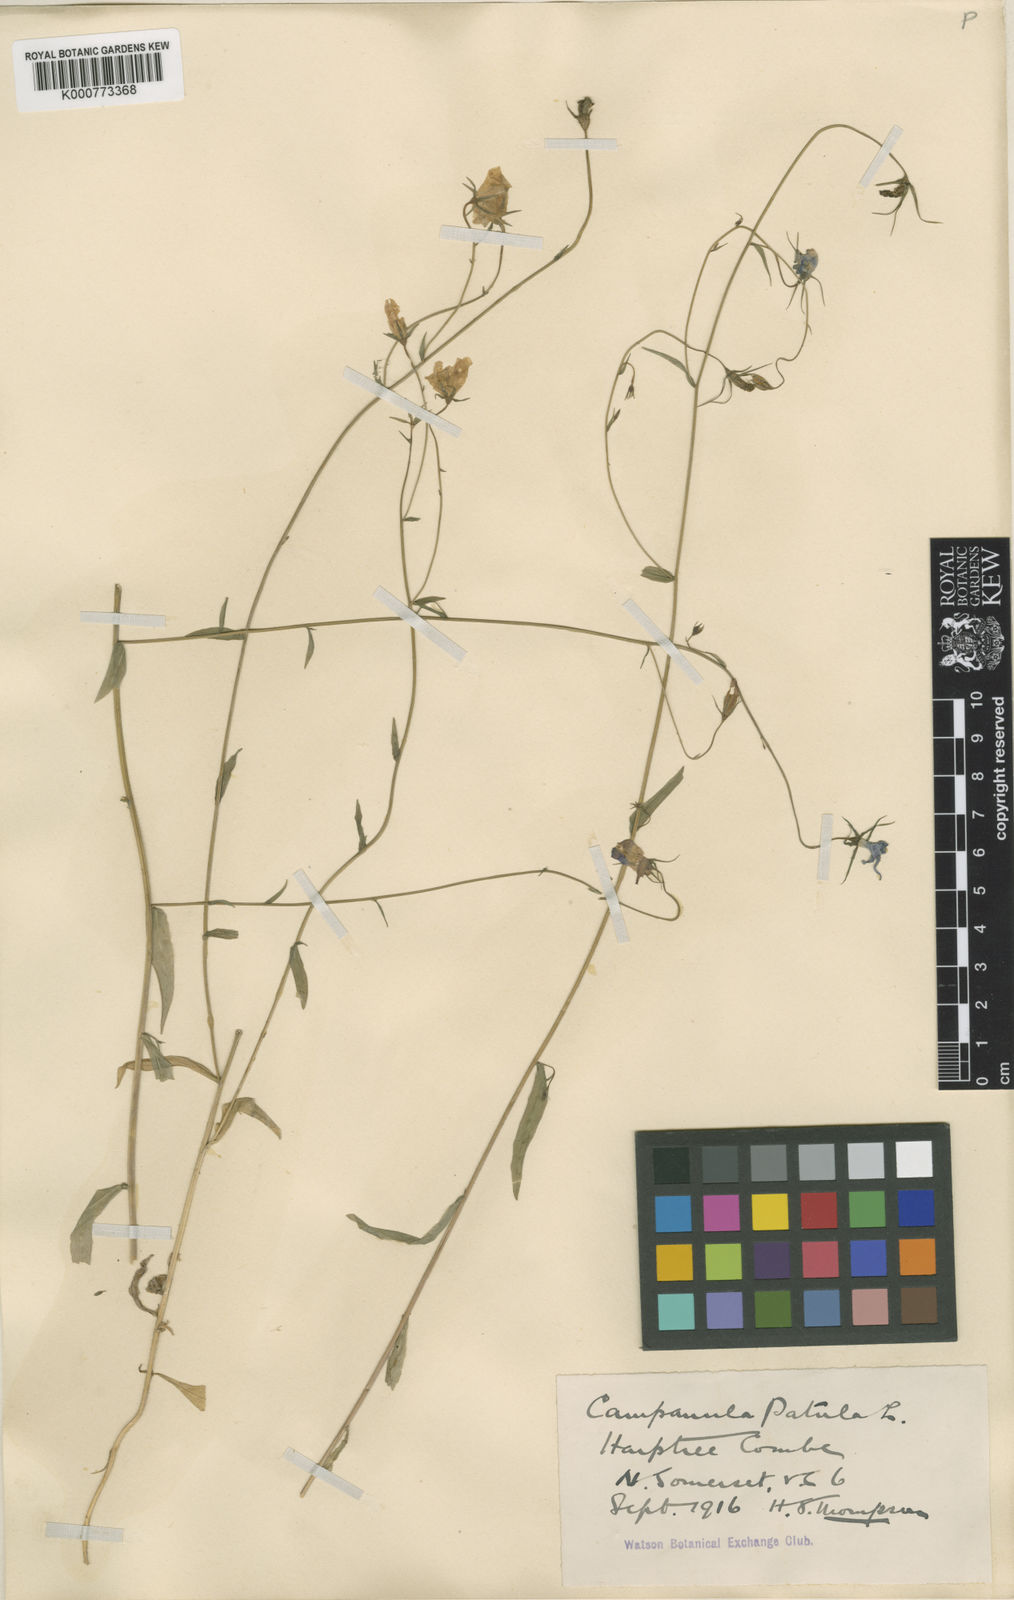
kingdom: Plantae
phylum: Tracheophyta
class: Magnoliopsida
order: Asterales
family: Campanulaceae
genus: Campanula
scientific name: Campanula patula
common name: Spreading bellflower
